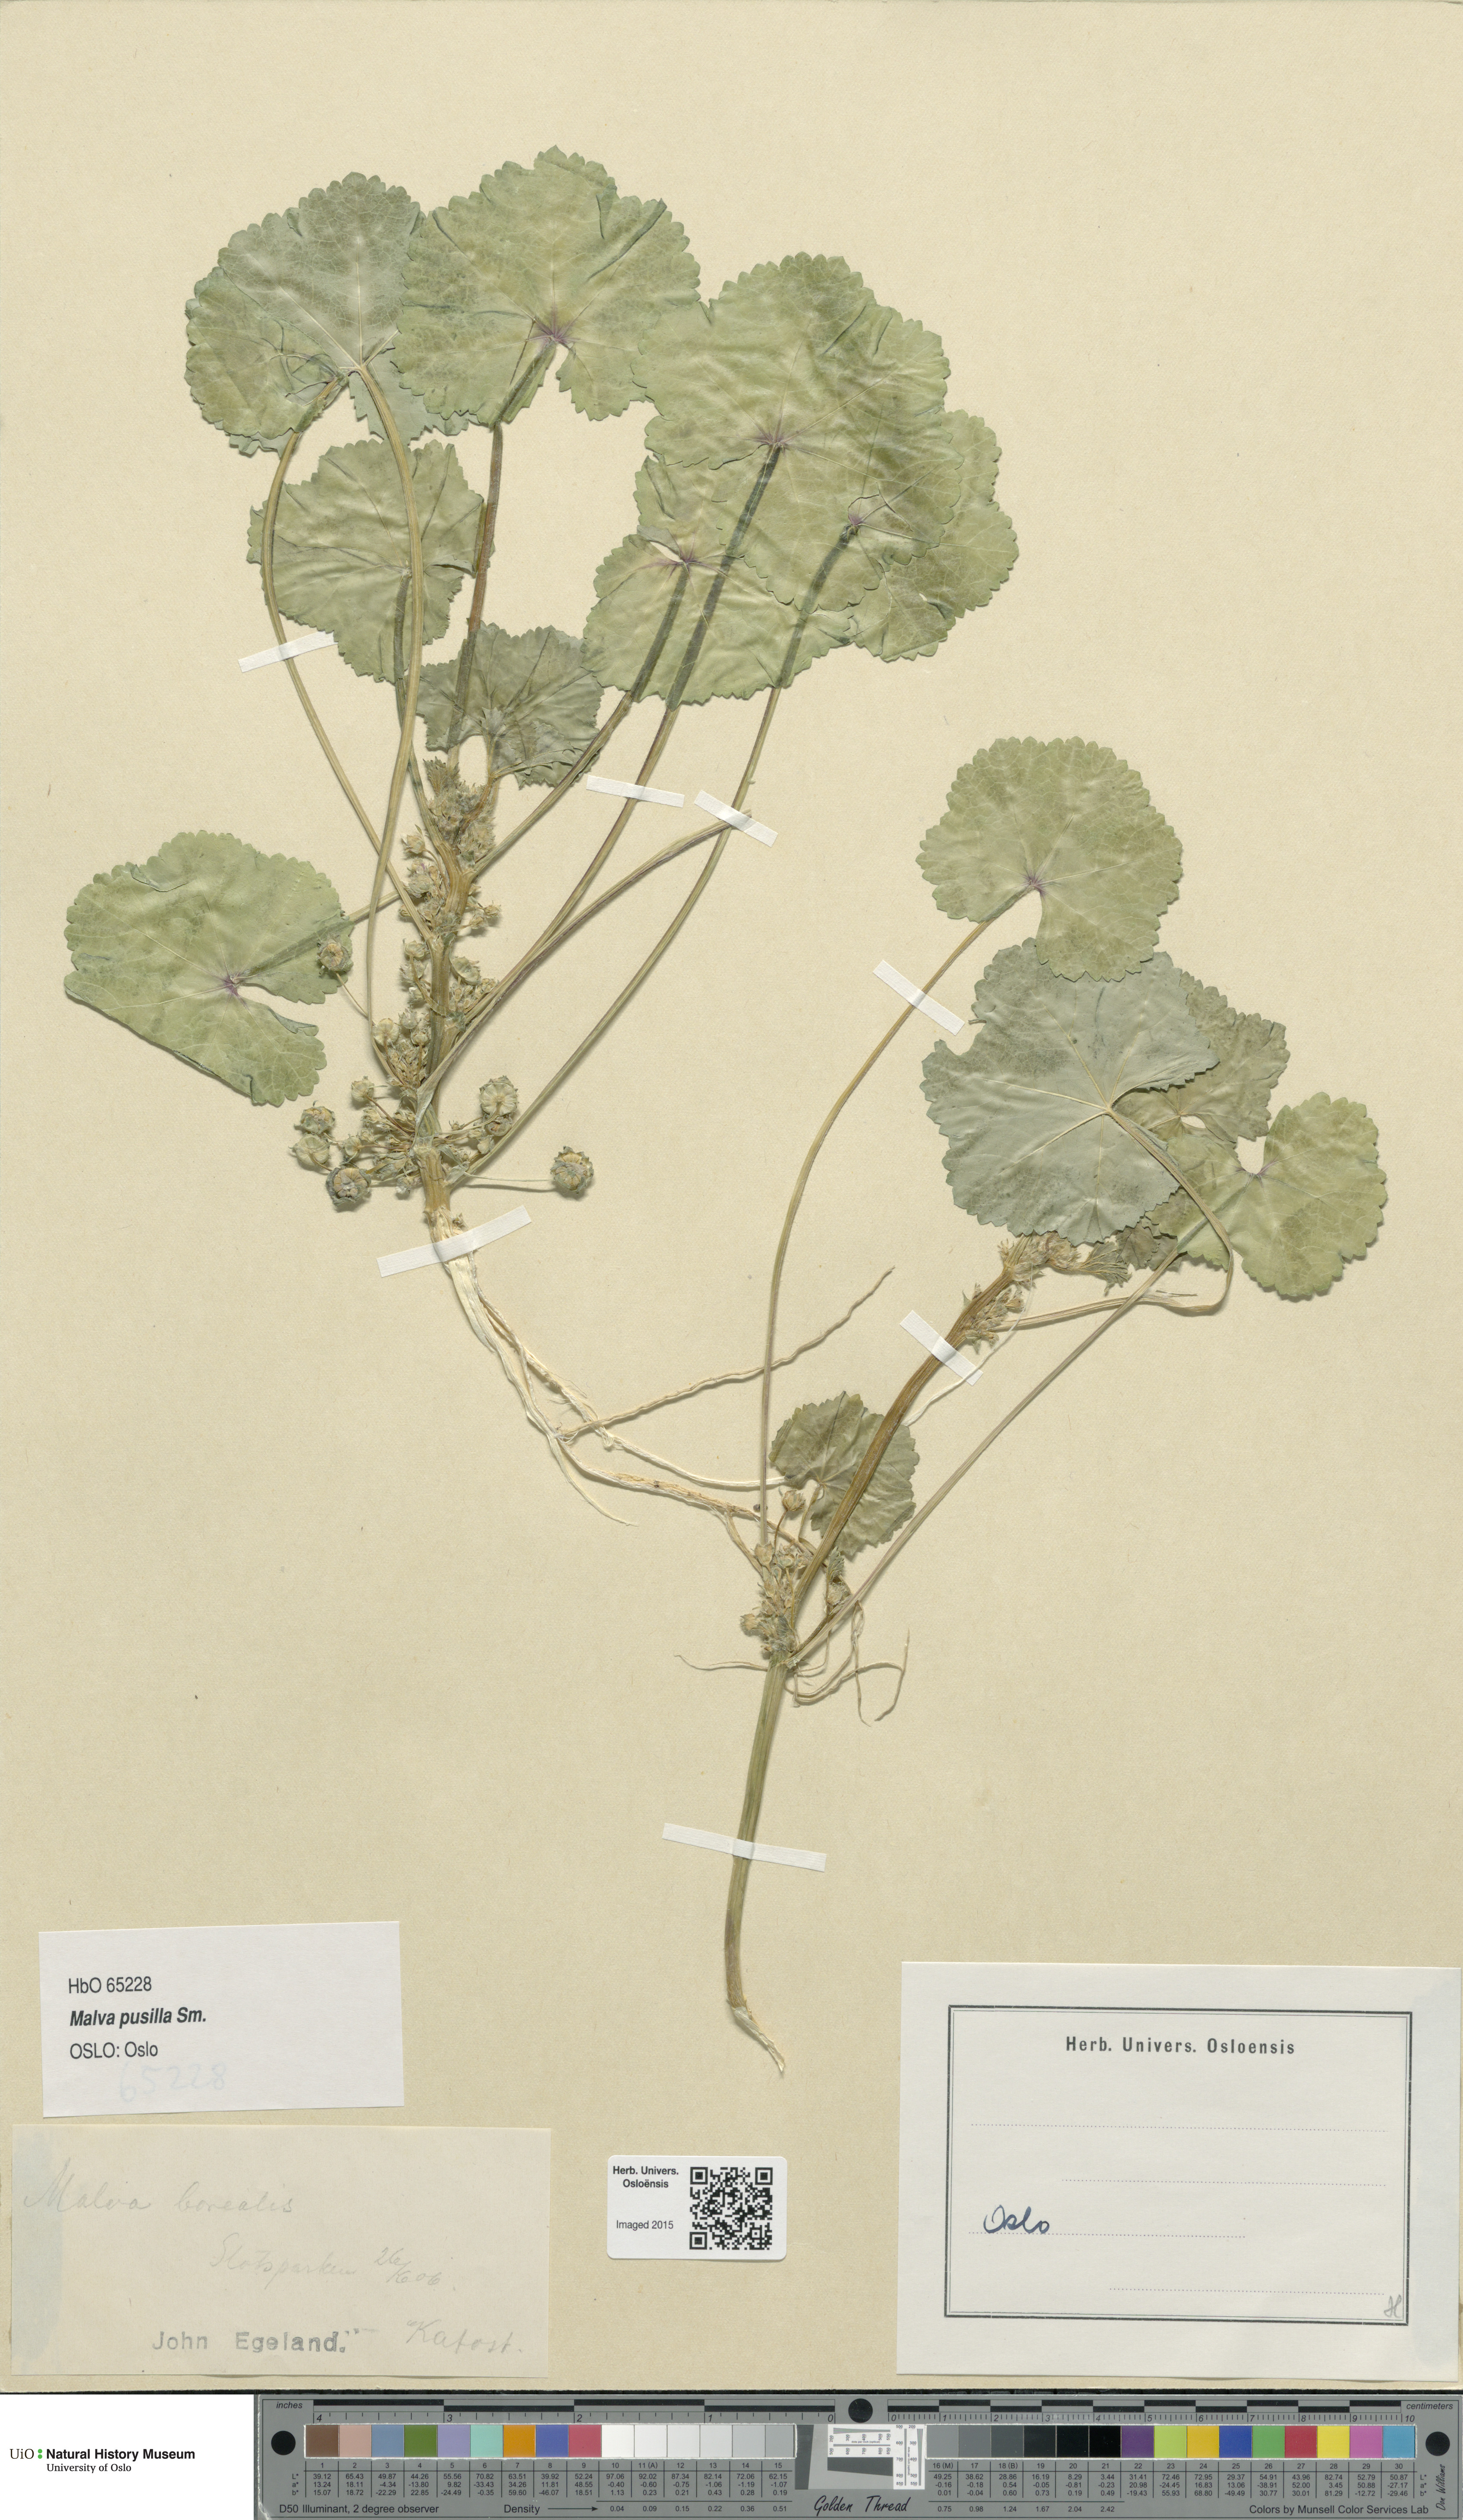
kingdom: Plantae
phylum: Tracheophyta
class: Magnoliopsida
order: Malvales
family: Malvaceae
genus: Malva
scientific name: Malva pusilla
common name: Small mallow
